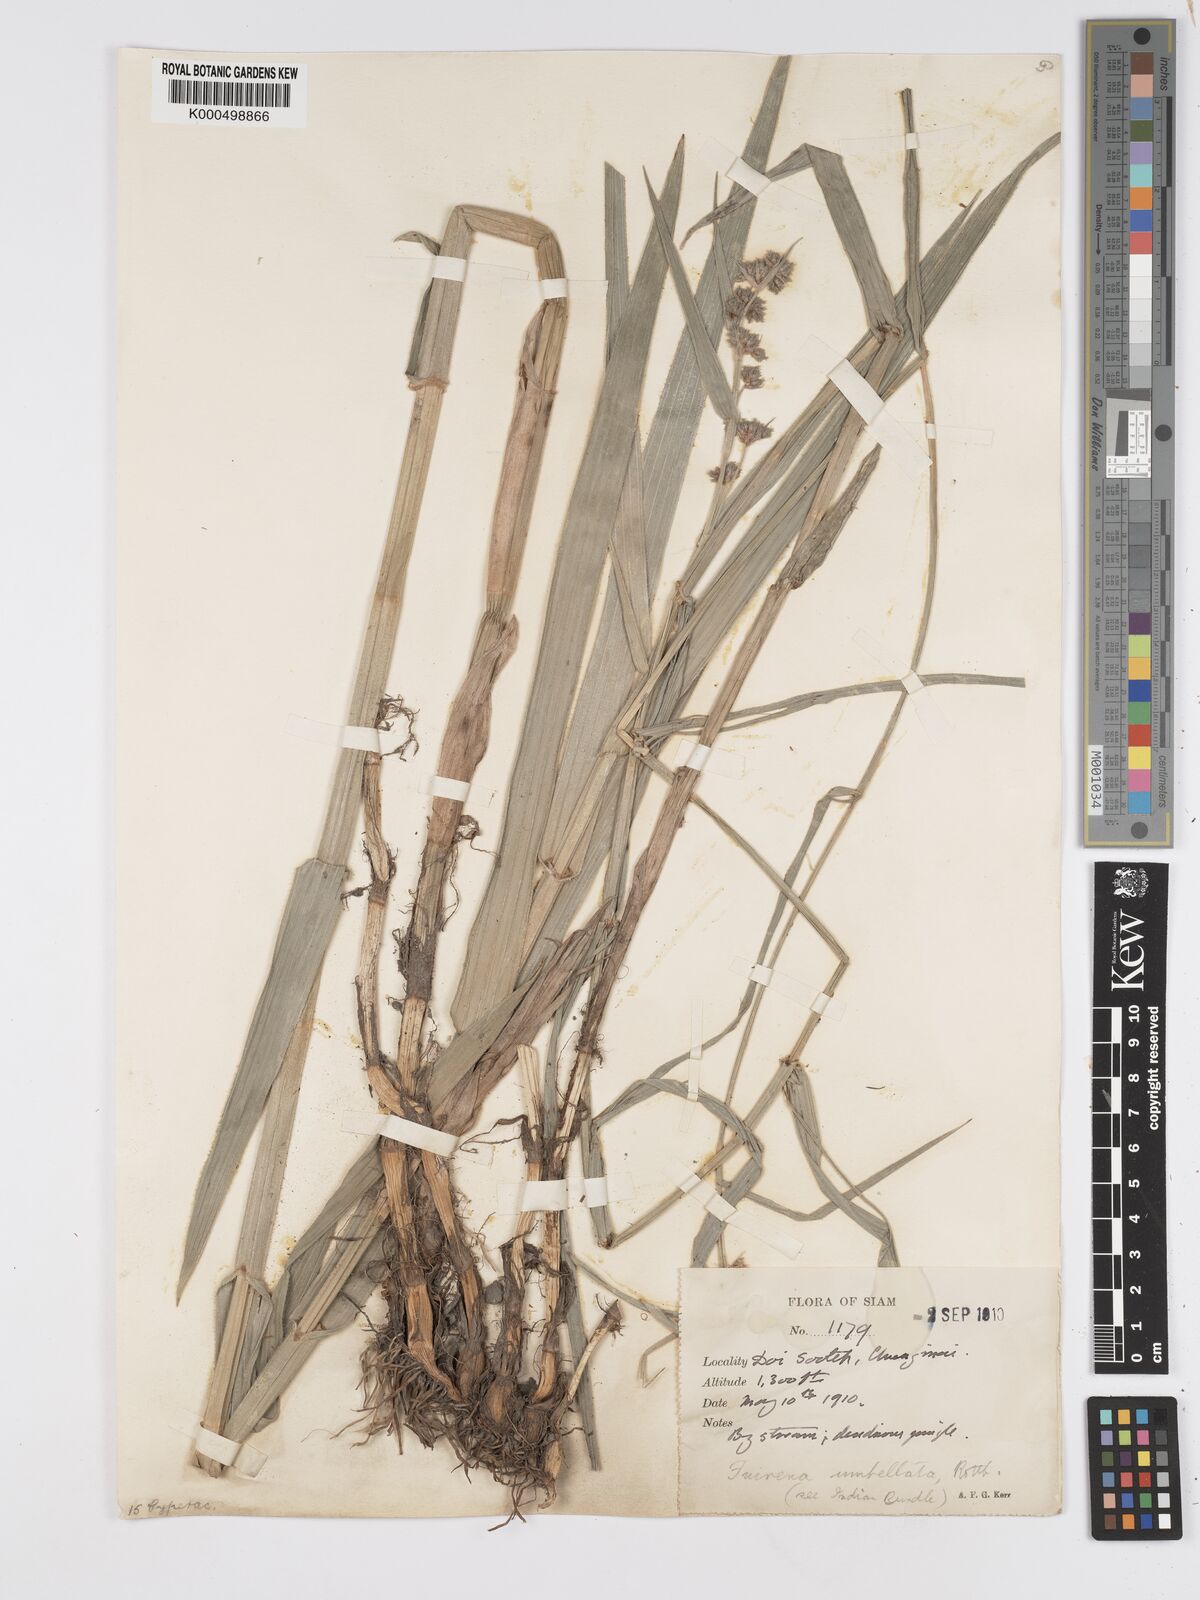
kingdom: Plantae
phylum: Tracheophyta
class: Liliopsida
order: Poales
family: Cyperaceae
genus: Fuirena
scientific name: Fuirena umbellata
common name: Yefen
